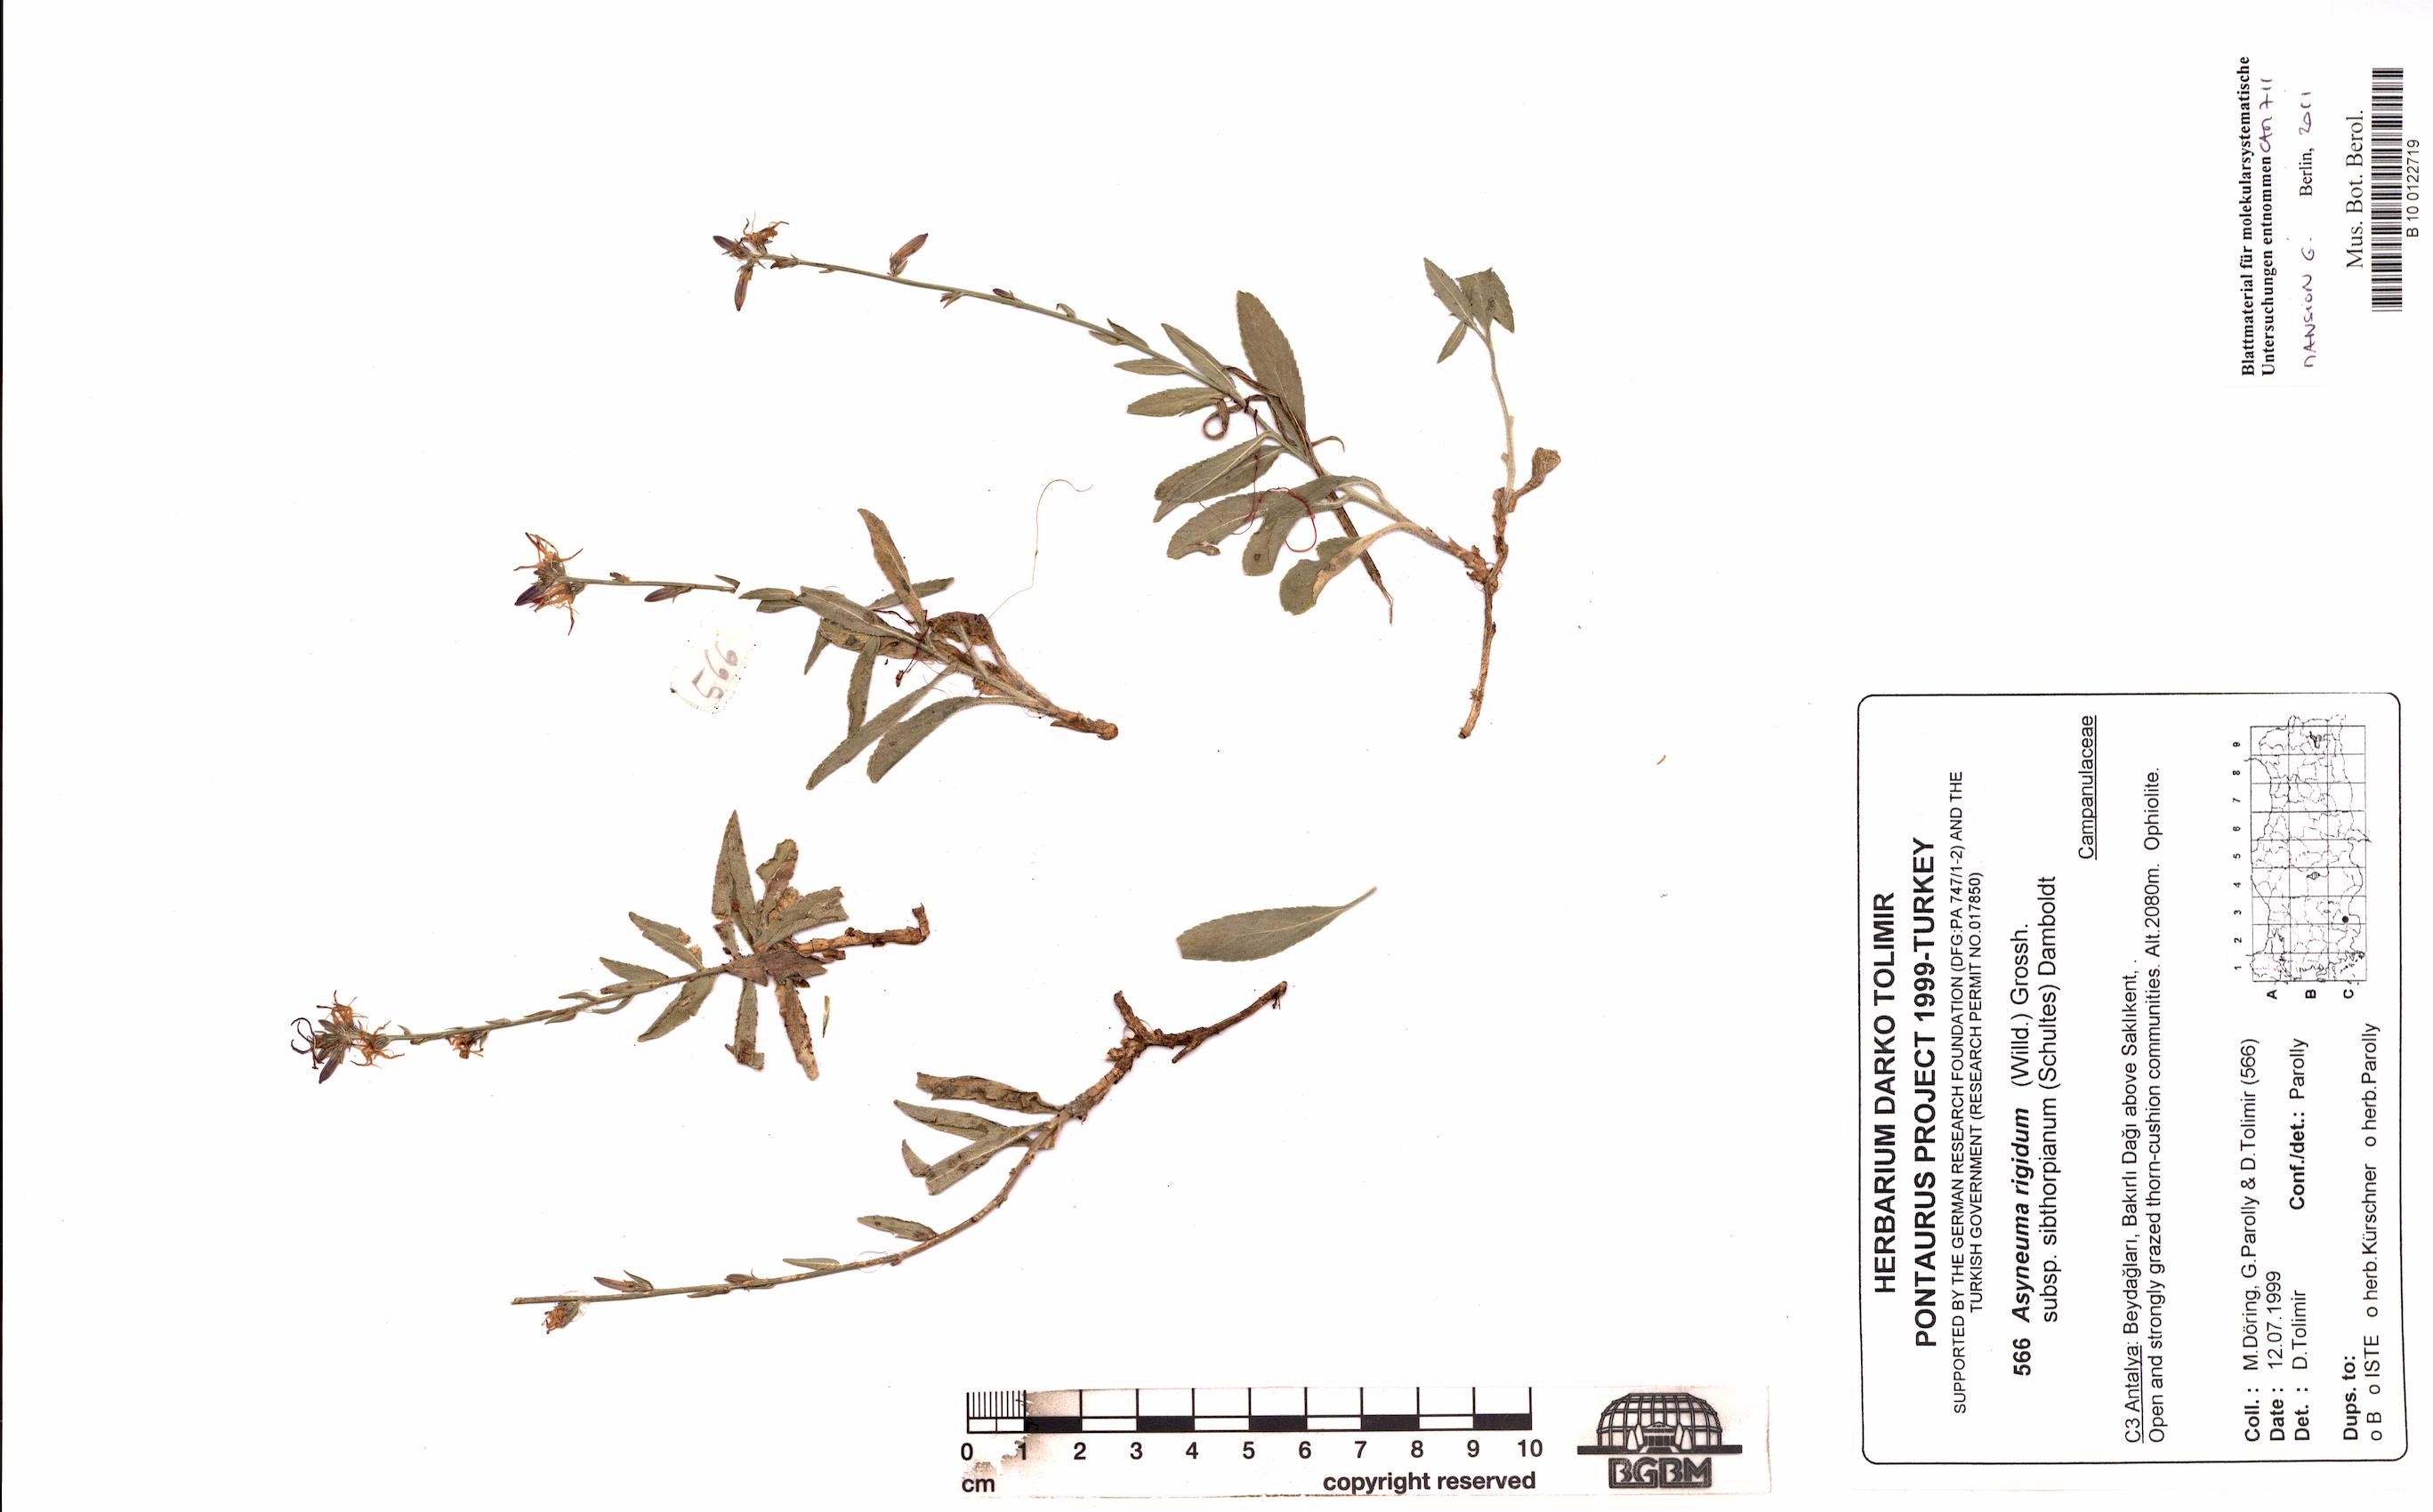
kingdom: Plantae
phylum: Tracheophyta
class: Magnoliopsida
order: Asterales
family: Campanulaceae
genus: Asyneuma
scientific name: Asyneuma rigidum
